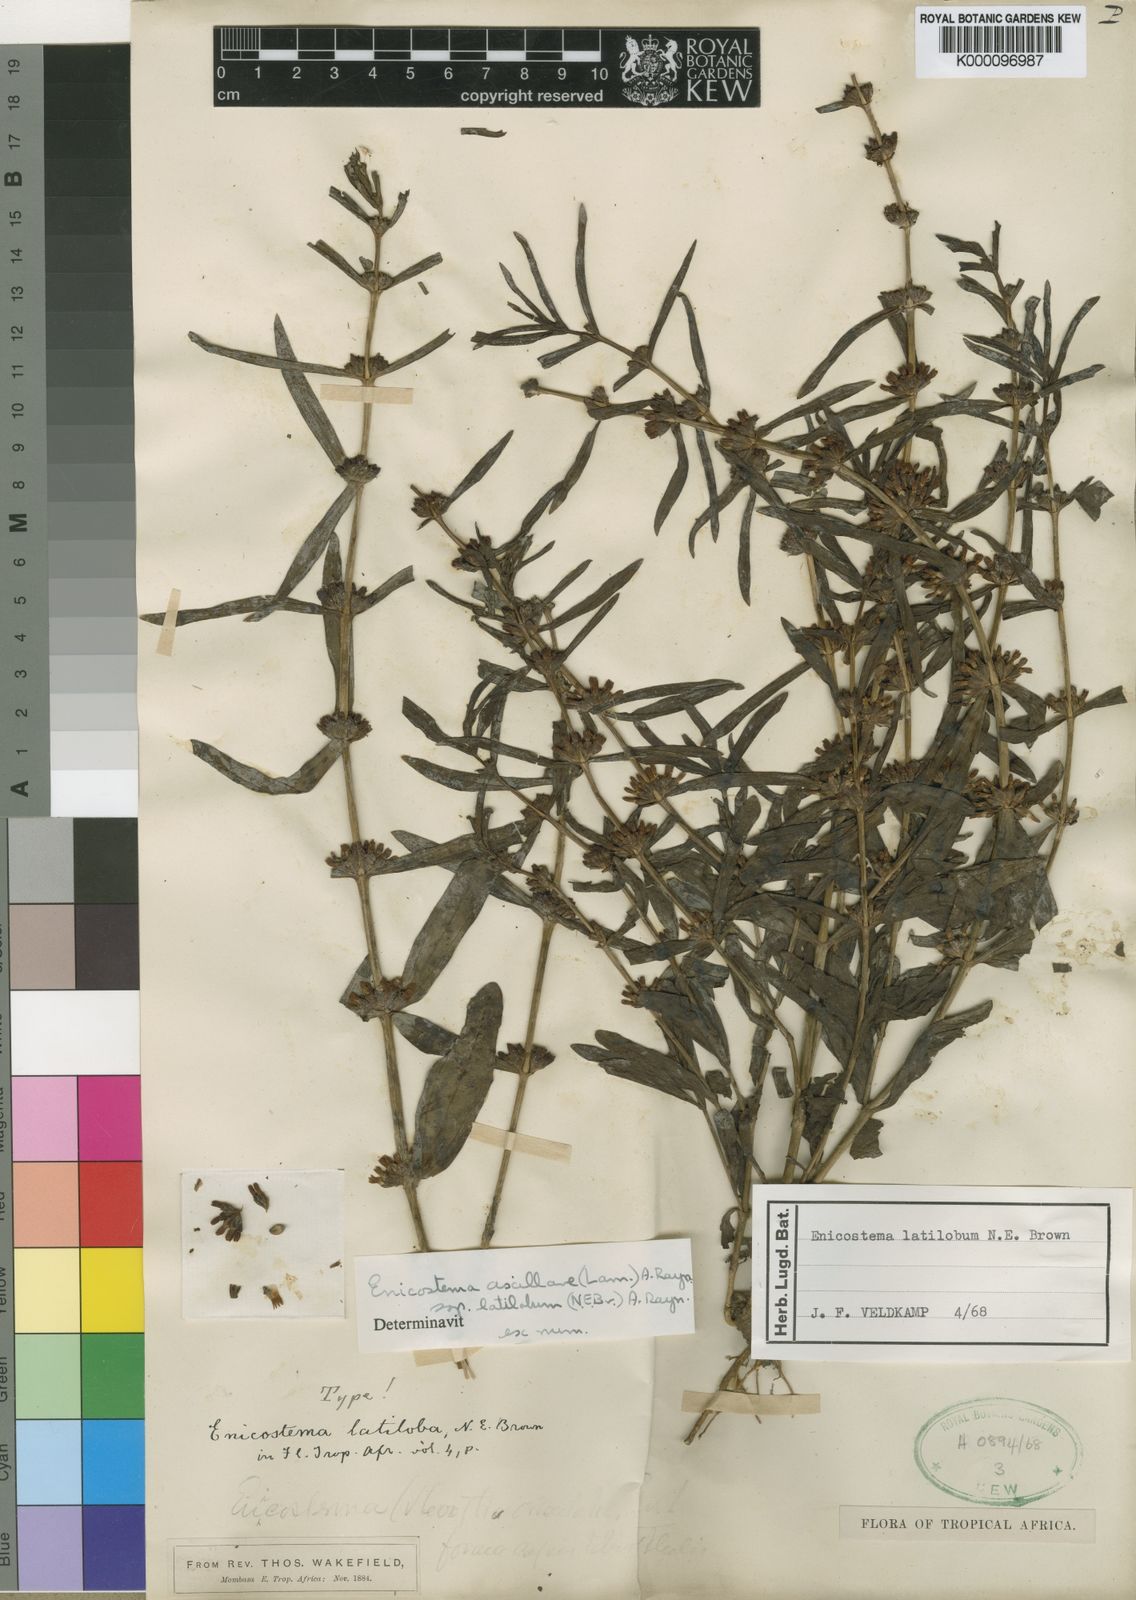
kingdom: Plantae
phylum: Tracheophyta
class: Magnoliopsida
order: Gentianales
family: Gentianaceae
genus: Enicostema
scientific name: Enicostema axillare
